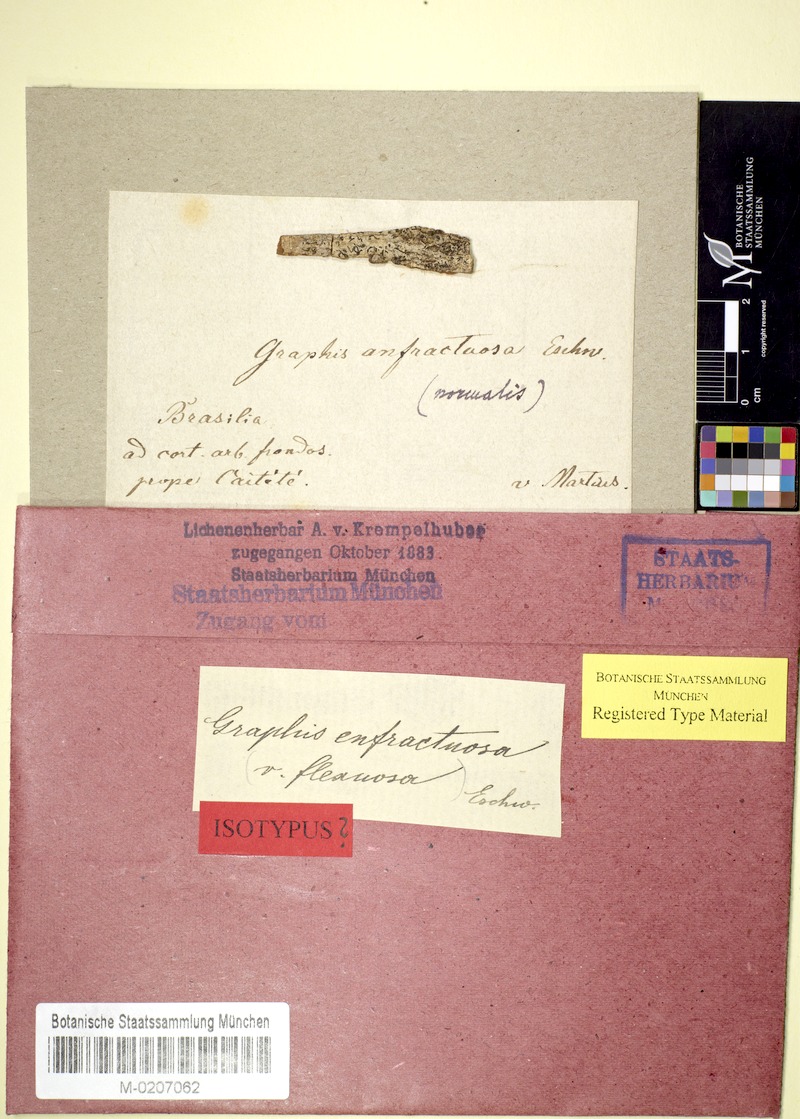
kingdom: Fungi
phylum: Ascomycota
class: Lecanoromycetes
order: Ostropales
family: Graphidaceae
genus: Graphis
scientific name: Graphis anfractuosa
